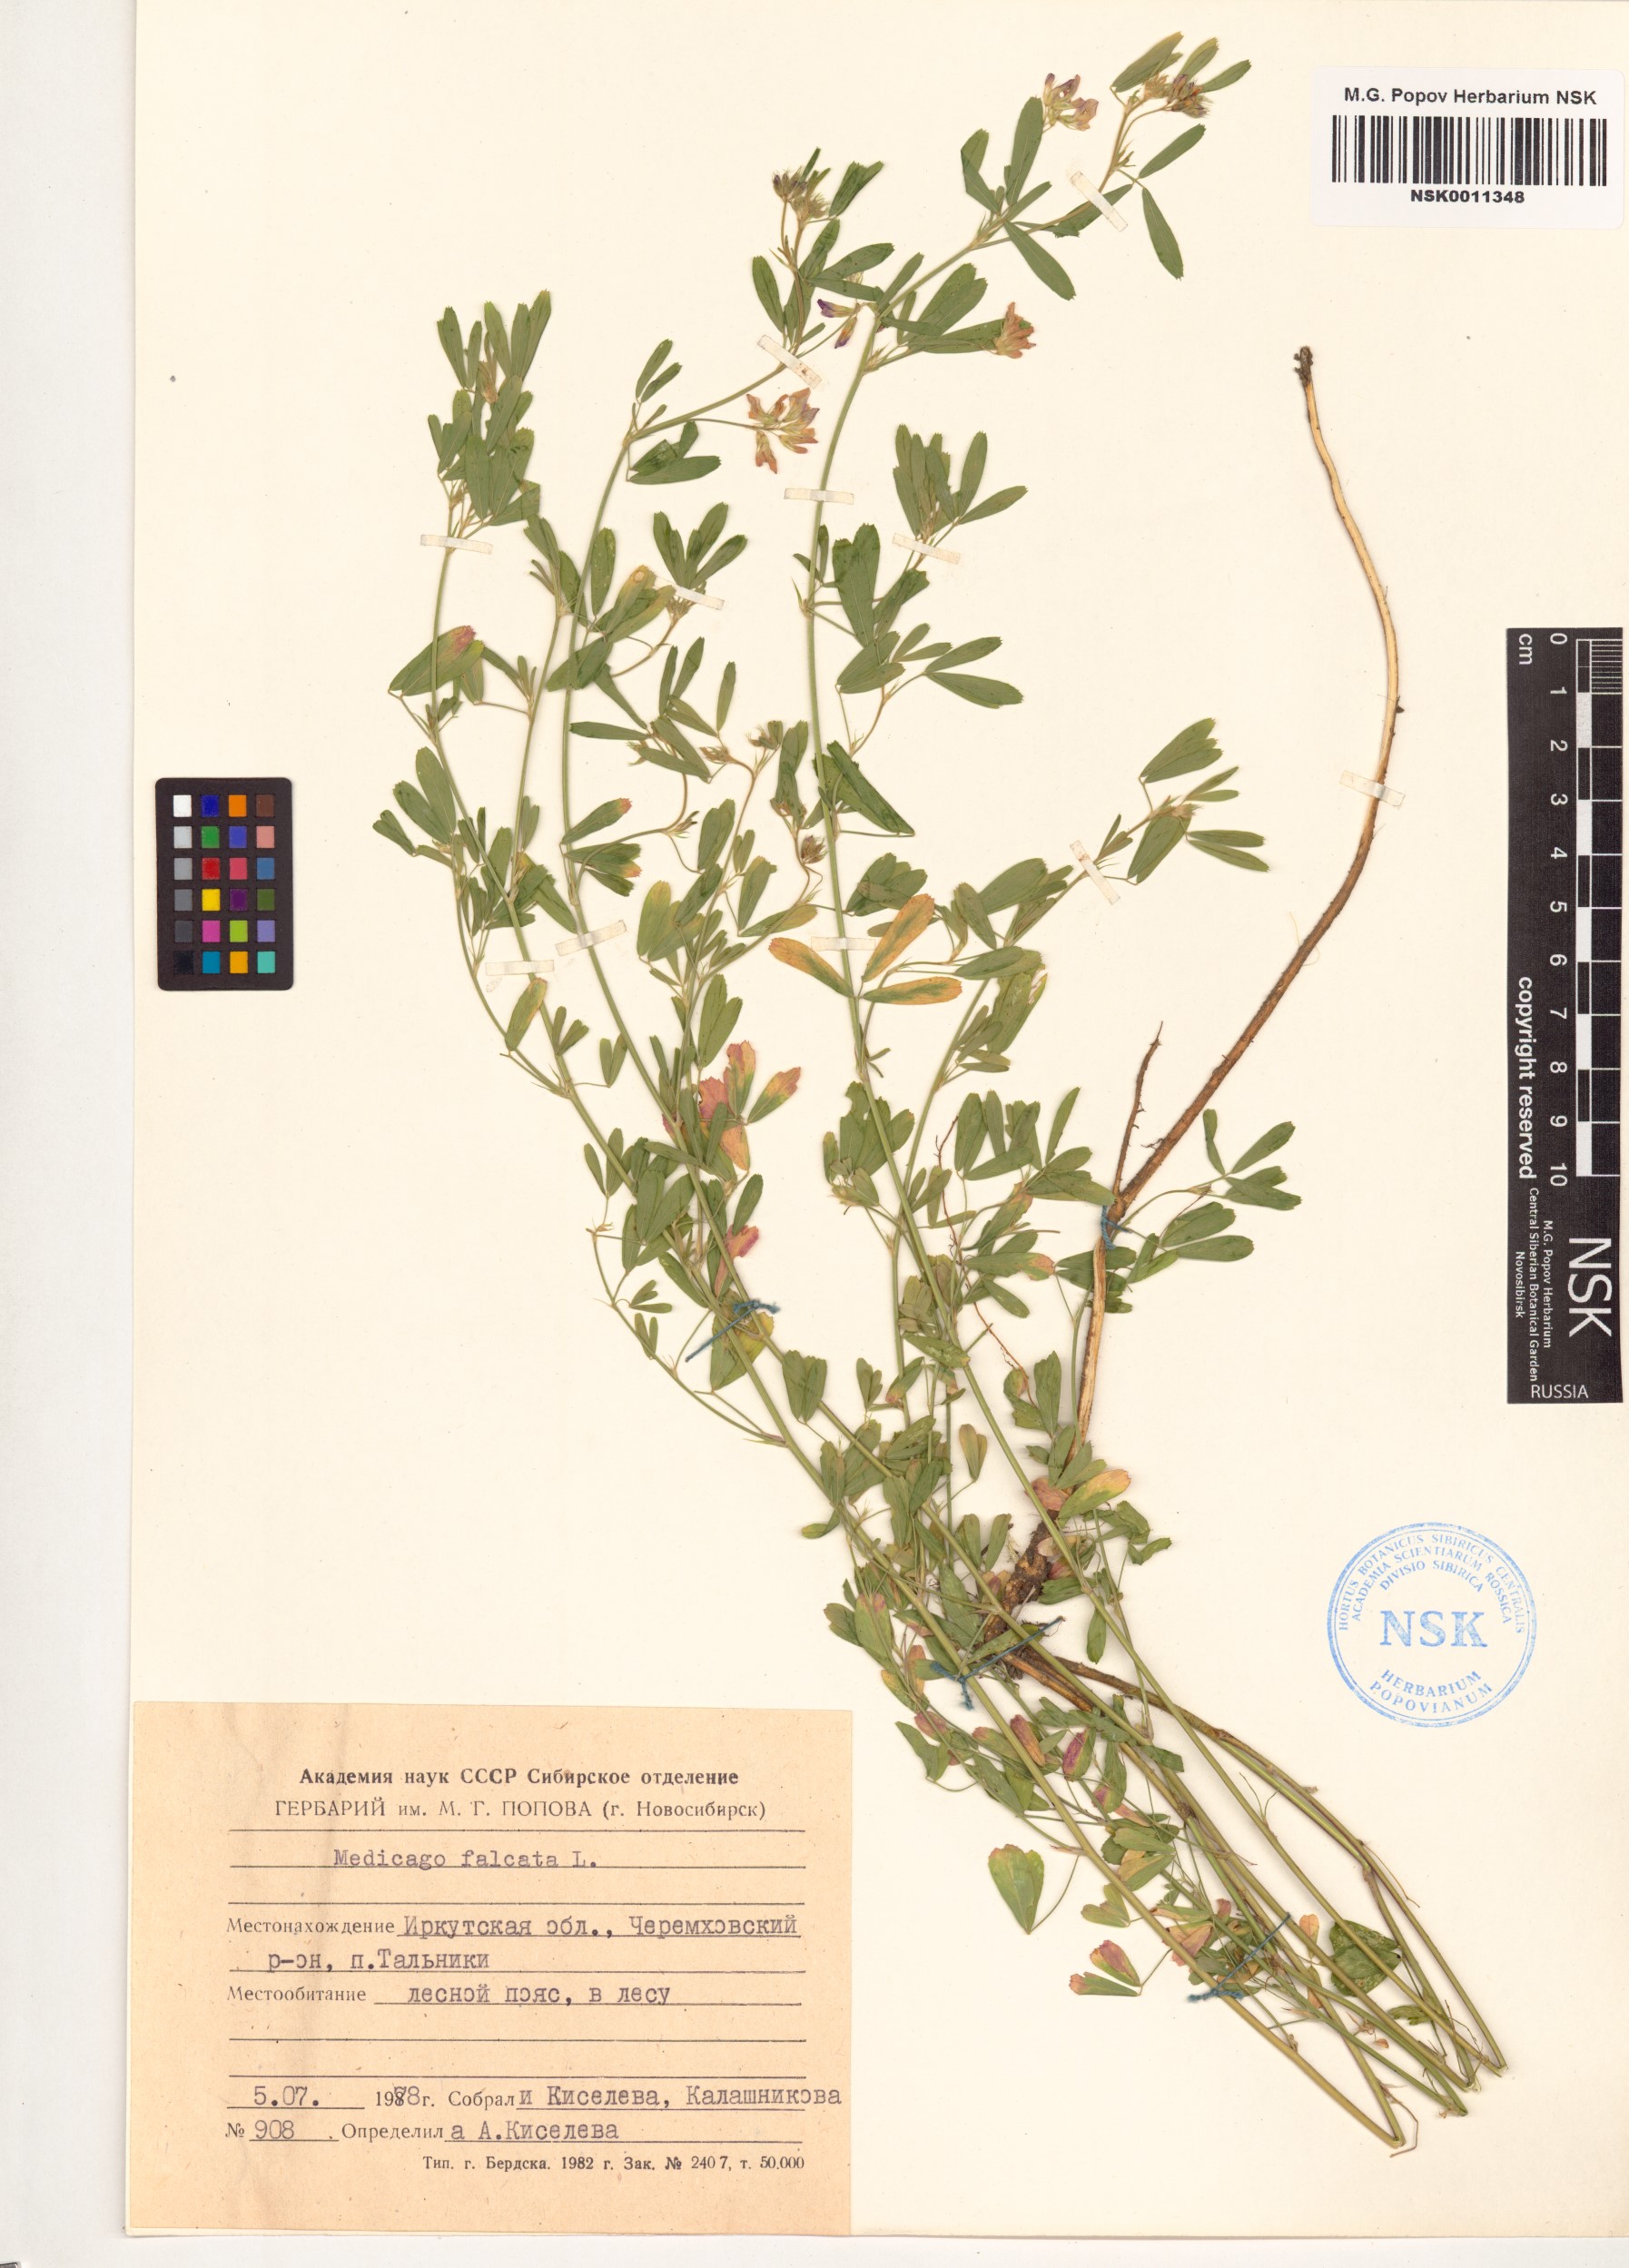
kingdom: Plantae
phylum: Tracheophyta
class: Magnoliopsida
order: Fabales
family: Fabaceae
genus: Medicago
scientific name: Medicago falcata
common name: Sickle medick
